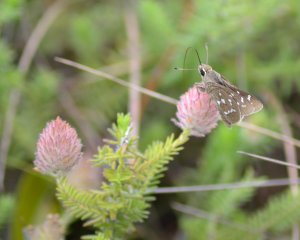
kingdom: Animalia
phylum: Arthropoda
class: Insecta
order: Lepidoptera
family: Hesperiidae
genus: Atrytonopsis
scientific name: Atrytonopsis loammi
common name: Loammi Skipper
